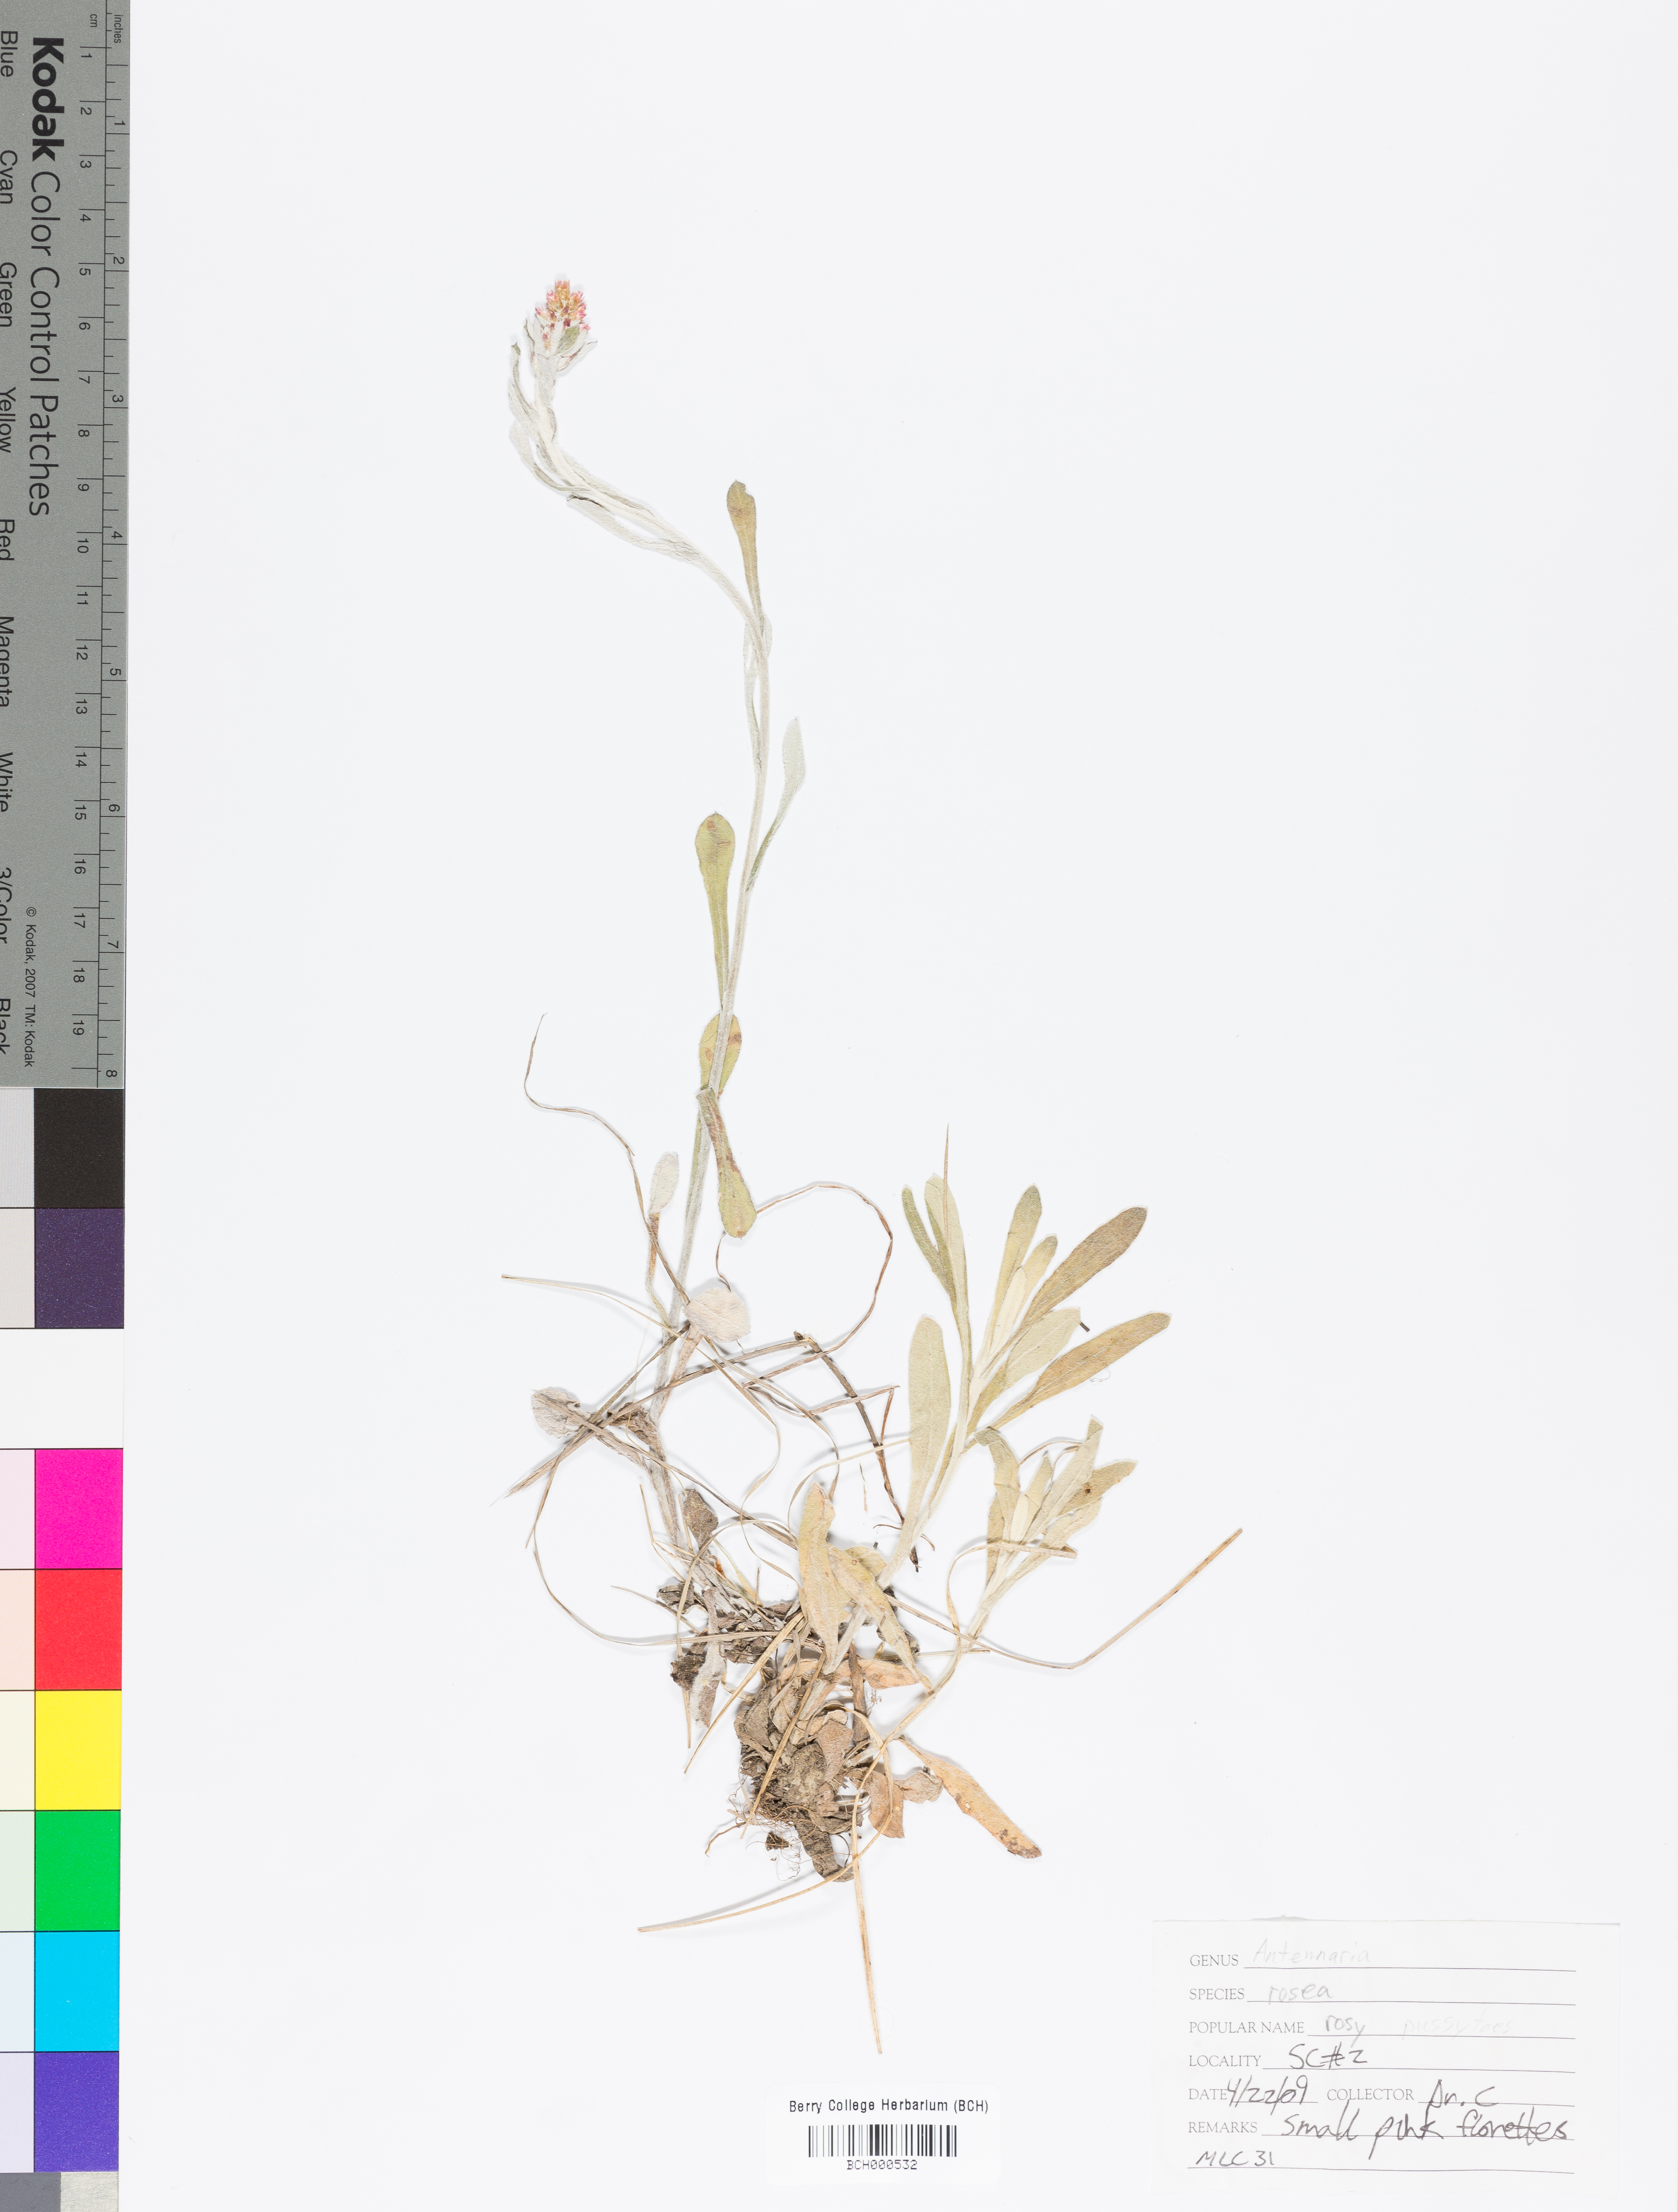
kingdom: Plantae
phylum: Tracheophyta
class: Magnoliopsida
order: Asterales
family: Asteraceae
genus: Antennaria
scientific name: Antennaria rosea
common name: Rosy pussytoes
